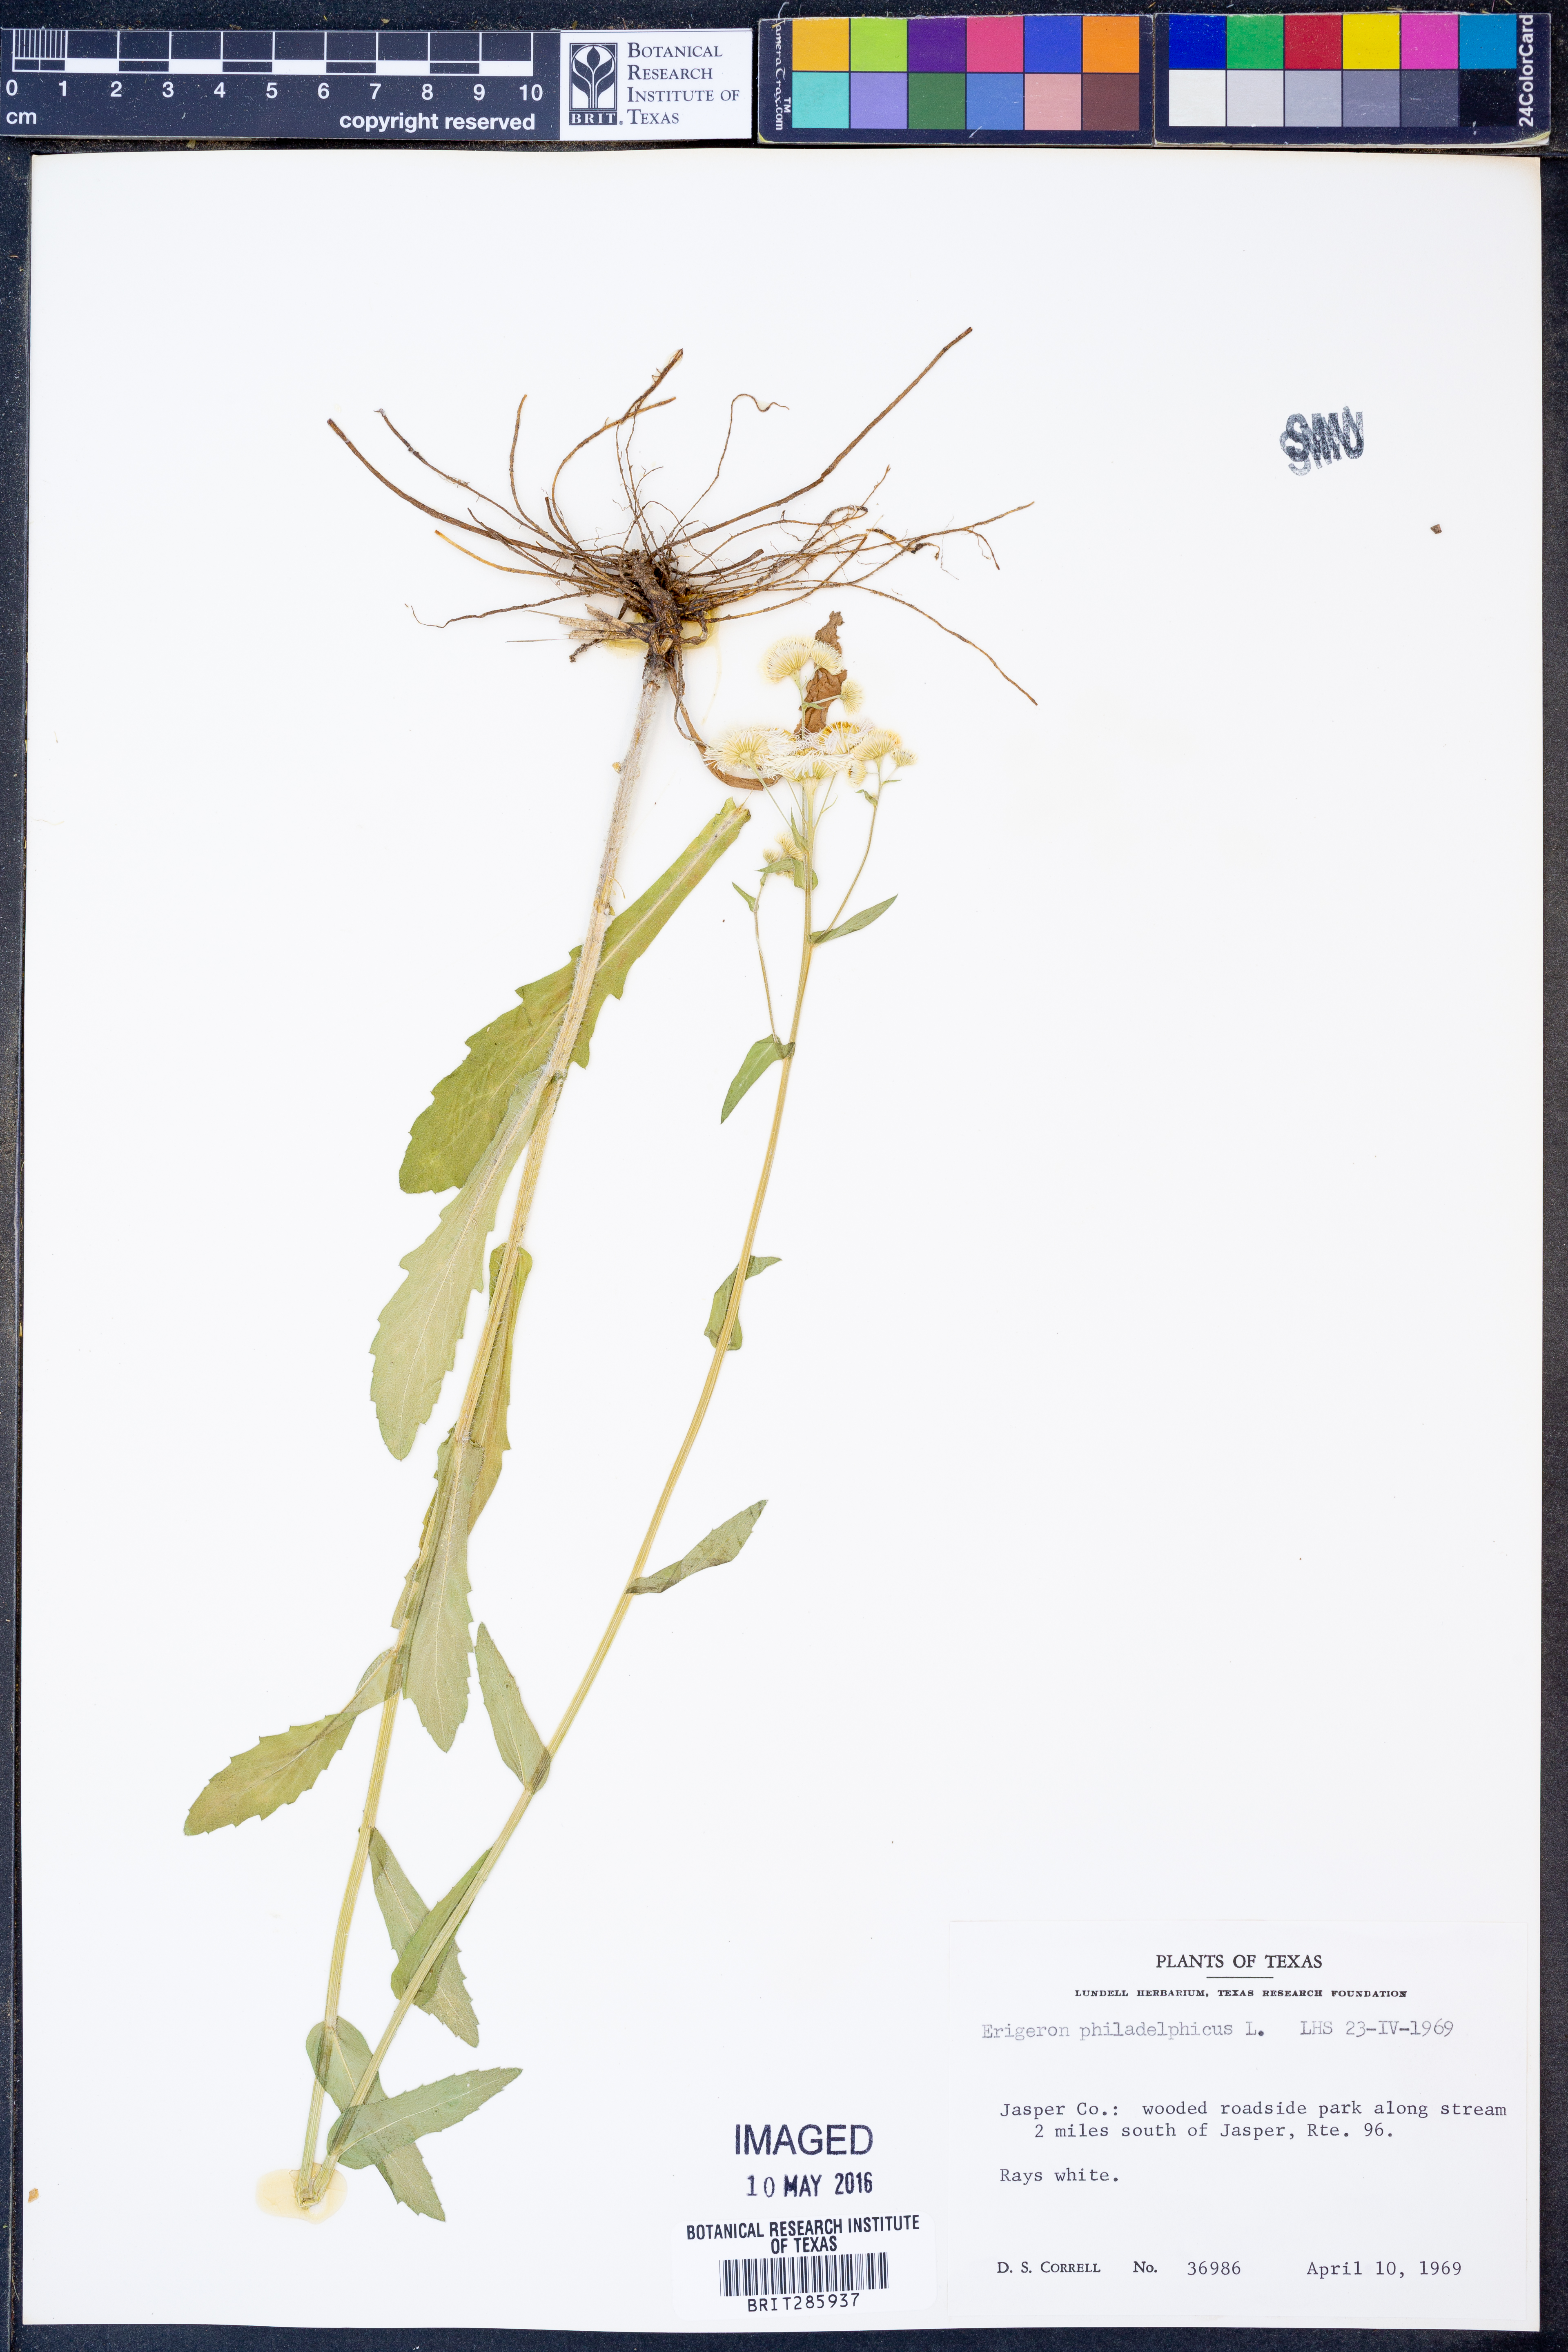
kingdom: Plantae
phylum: Tracheophyta
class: Magnoliopsida
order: Asterales
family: Asteraceae
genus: Erigeron
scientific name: Erigeron philadelphicus
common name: Robin's-plantain
